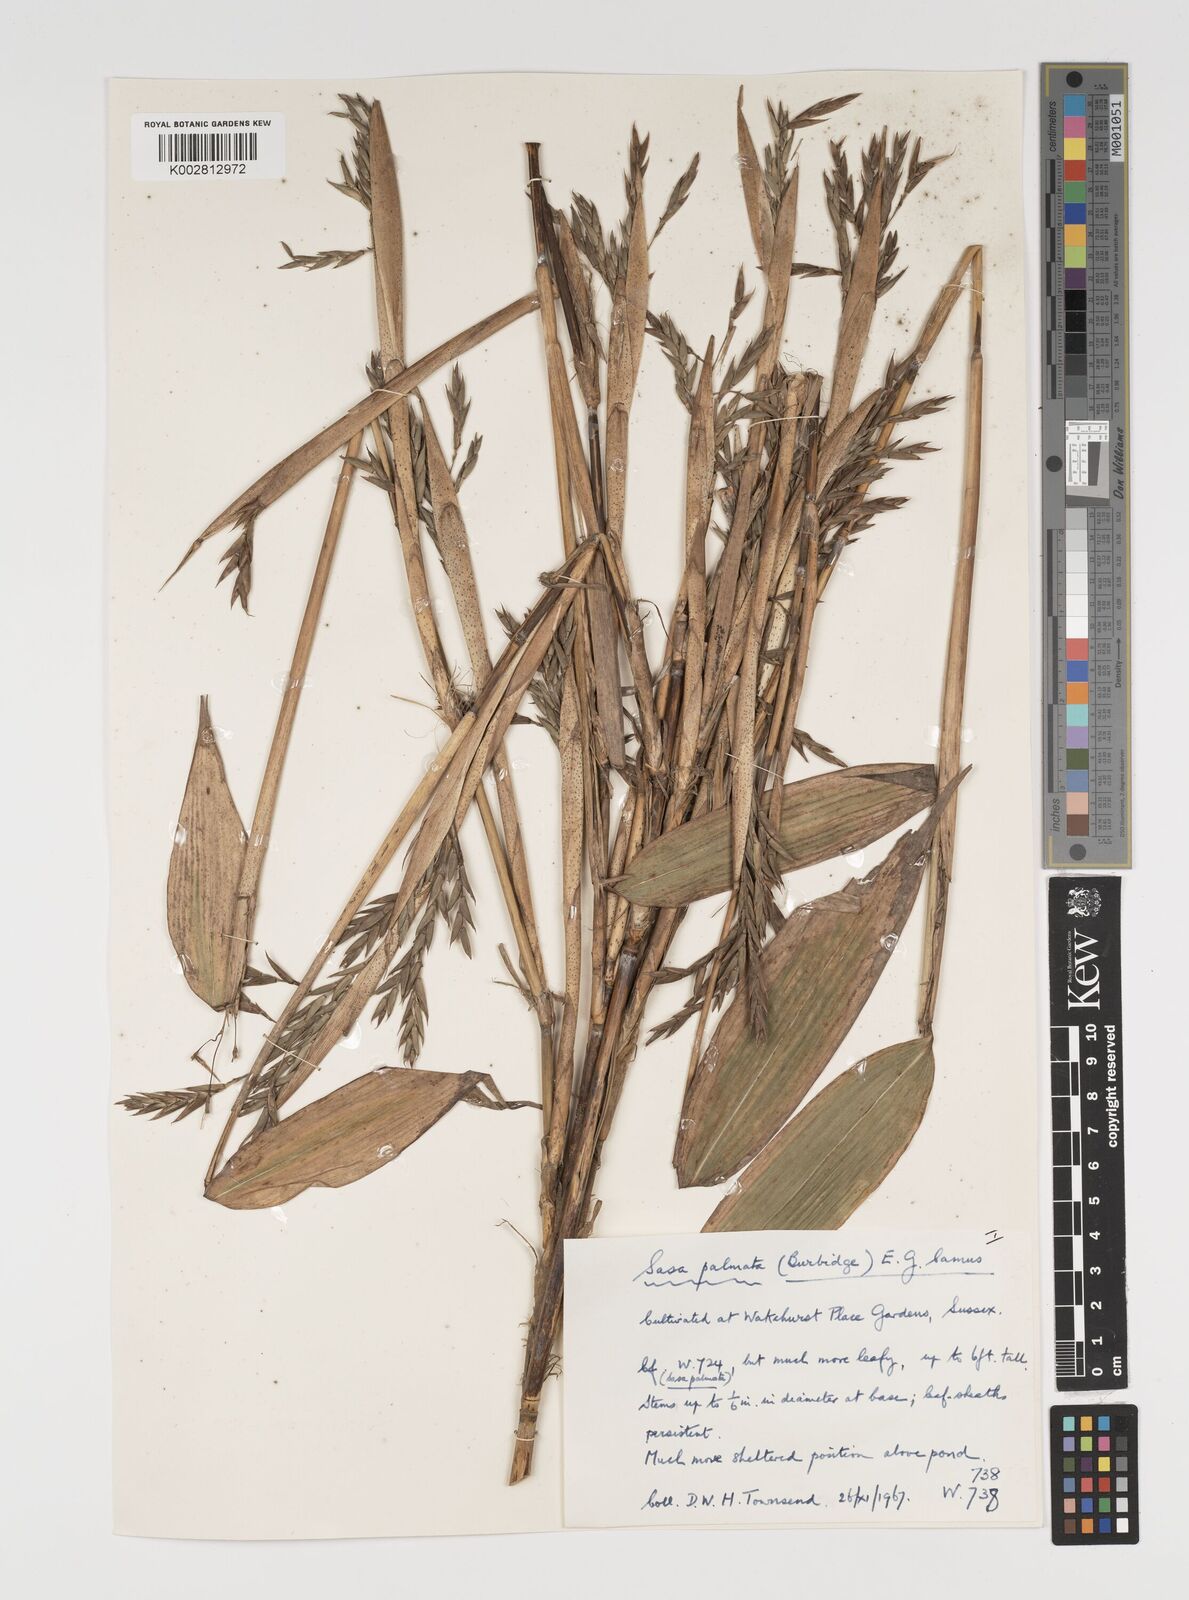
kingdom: Plantae
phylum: Tracheophyta
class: Liliopsida
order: Poales
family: Poaceae
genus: Sasa
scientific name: Sasa palmata
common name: Broad-leaved bamboo
